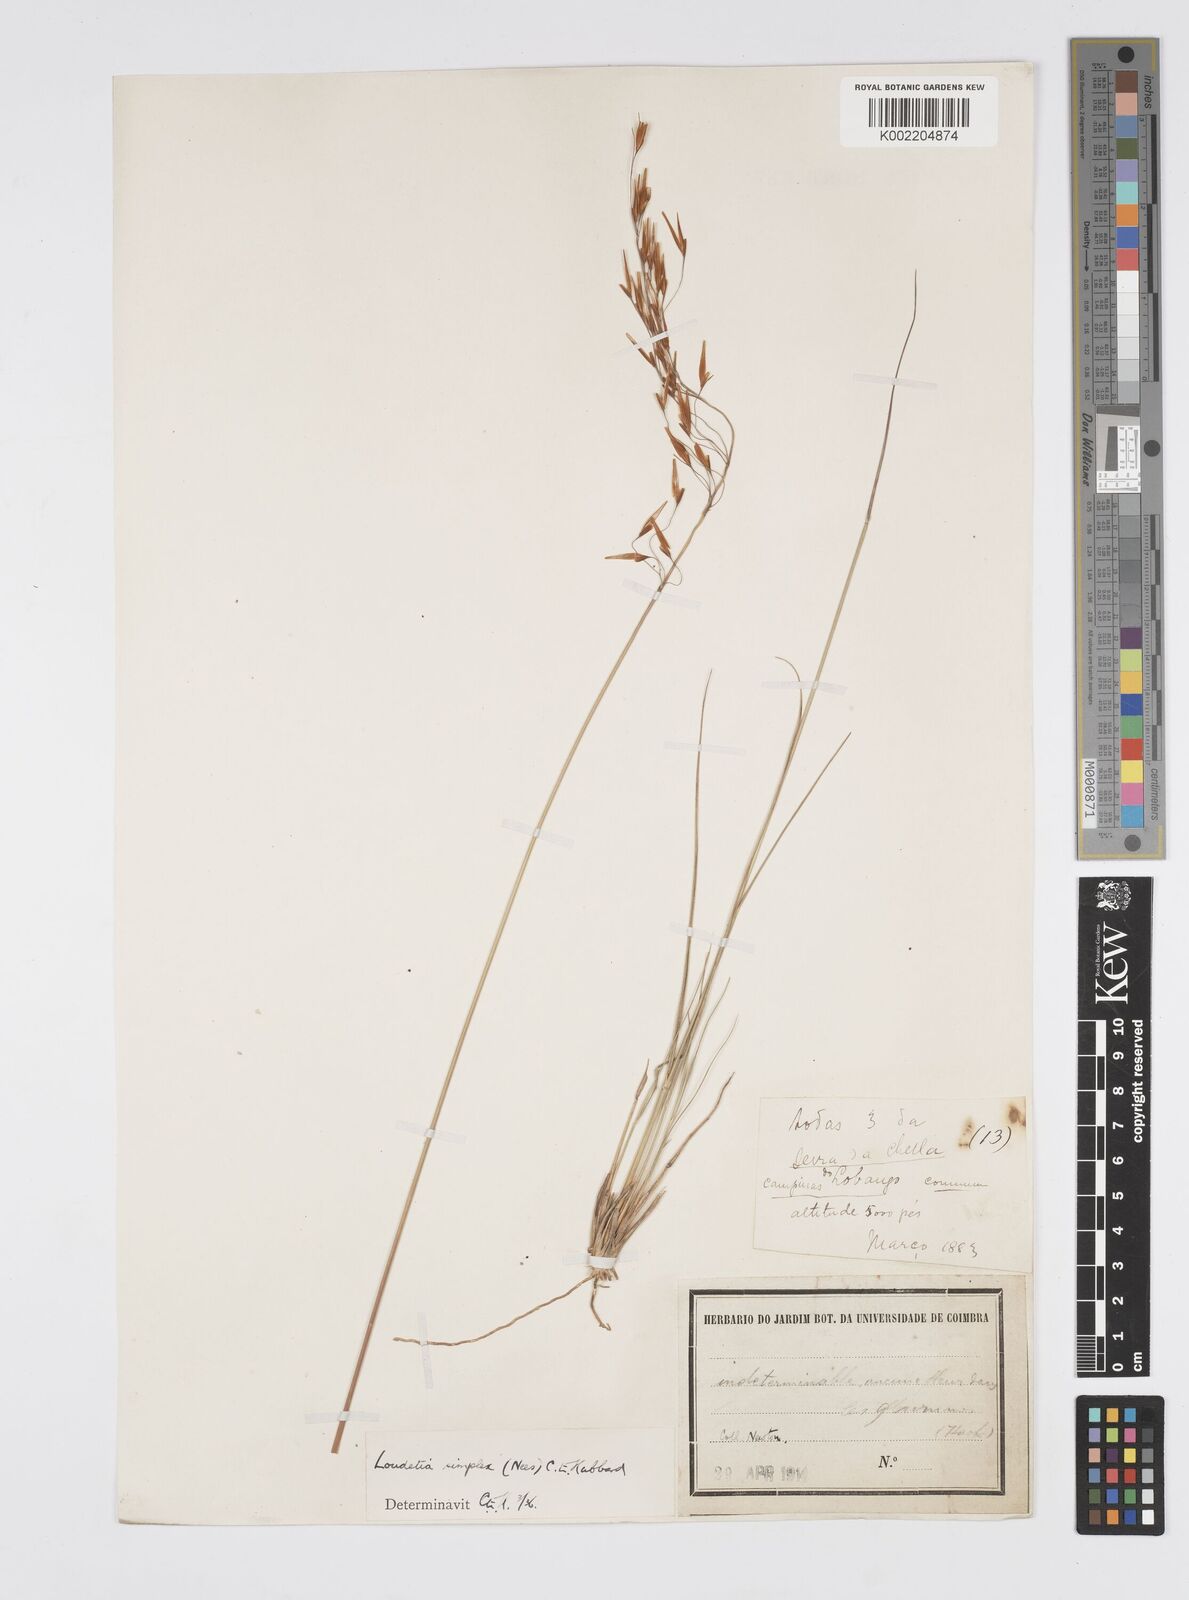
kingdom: Plantae
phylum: Tracheophyta
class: Liliopsida
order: Poales
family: Poaceae
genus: Loudetia
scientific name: Loudetia simplex
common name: Common russet grass
